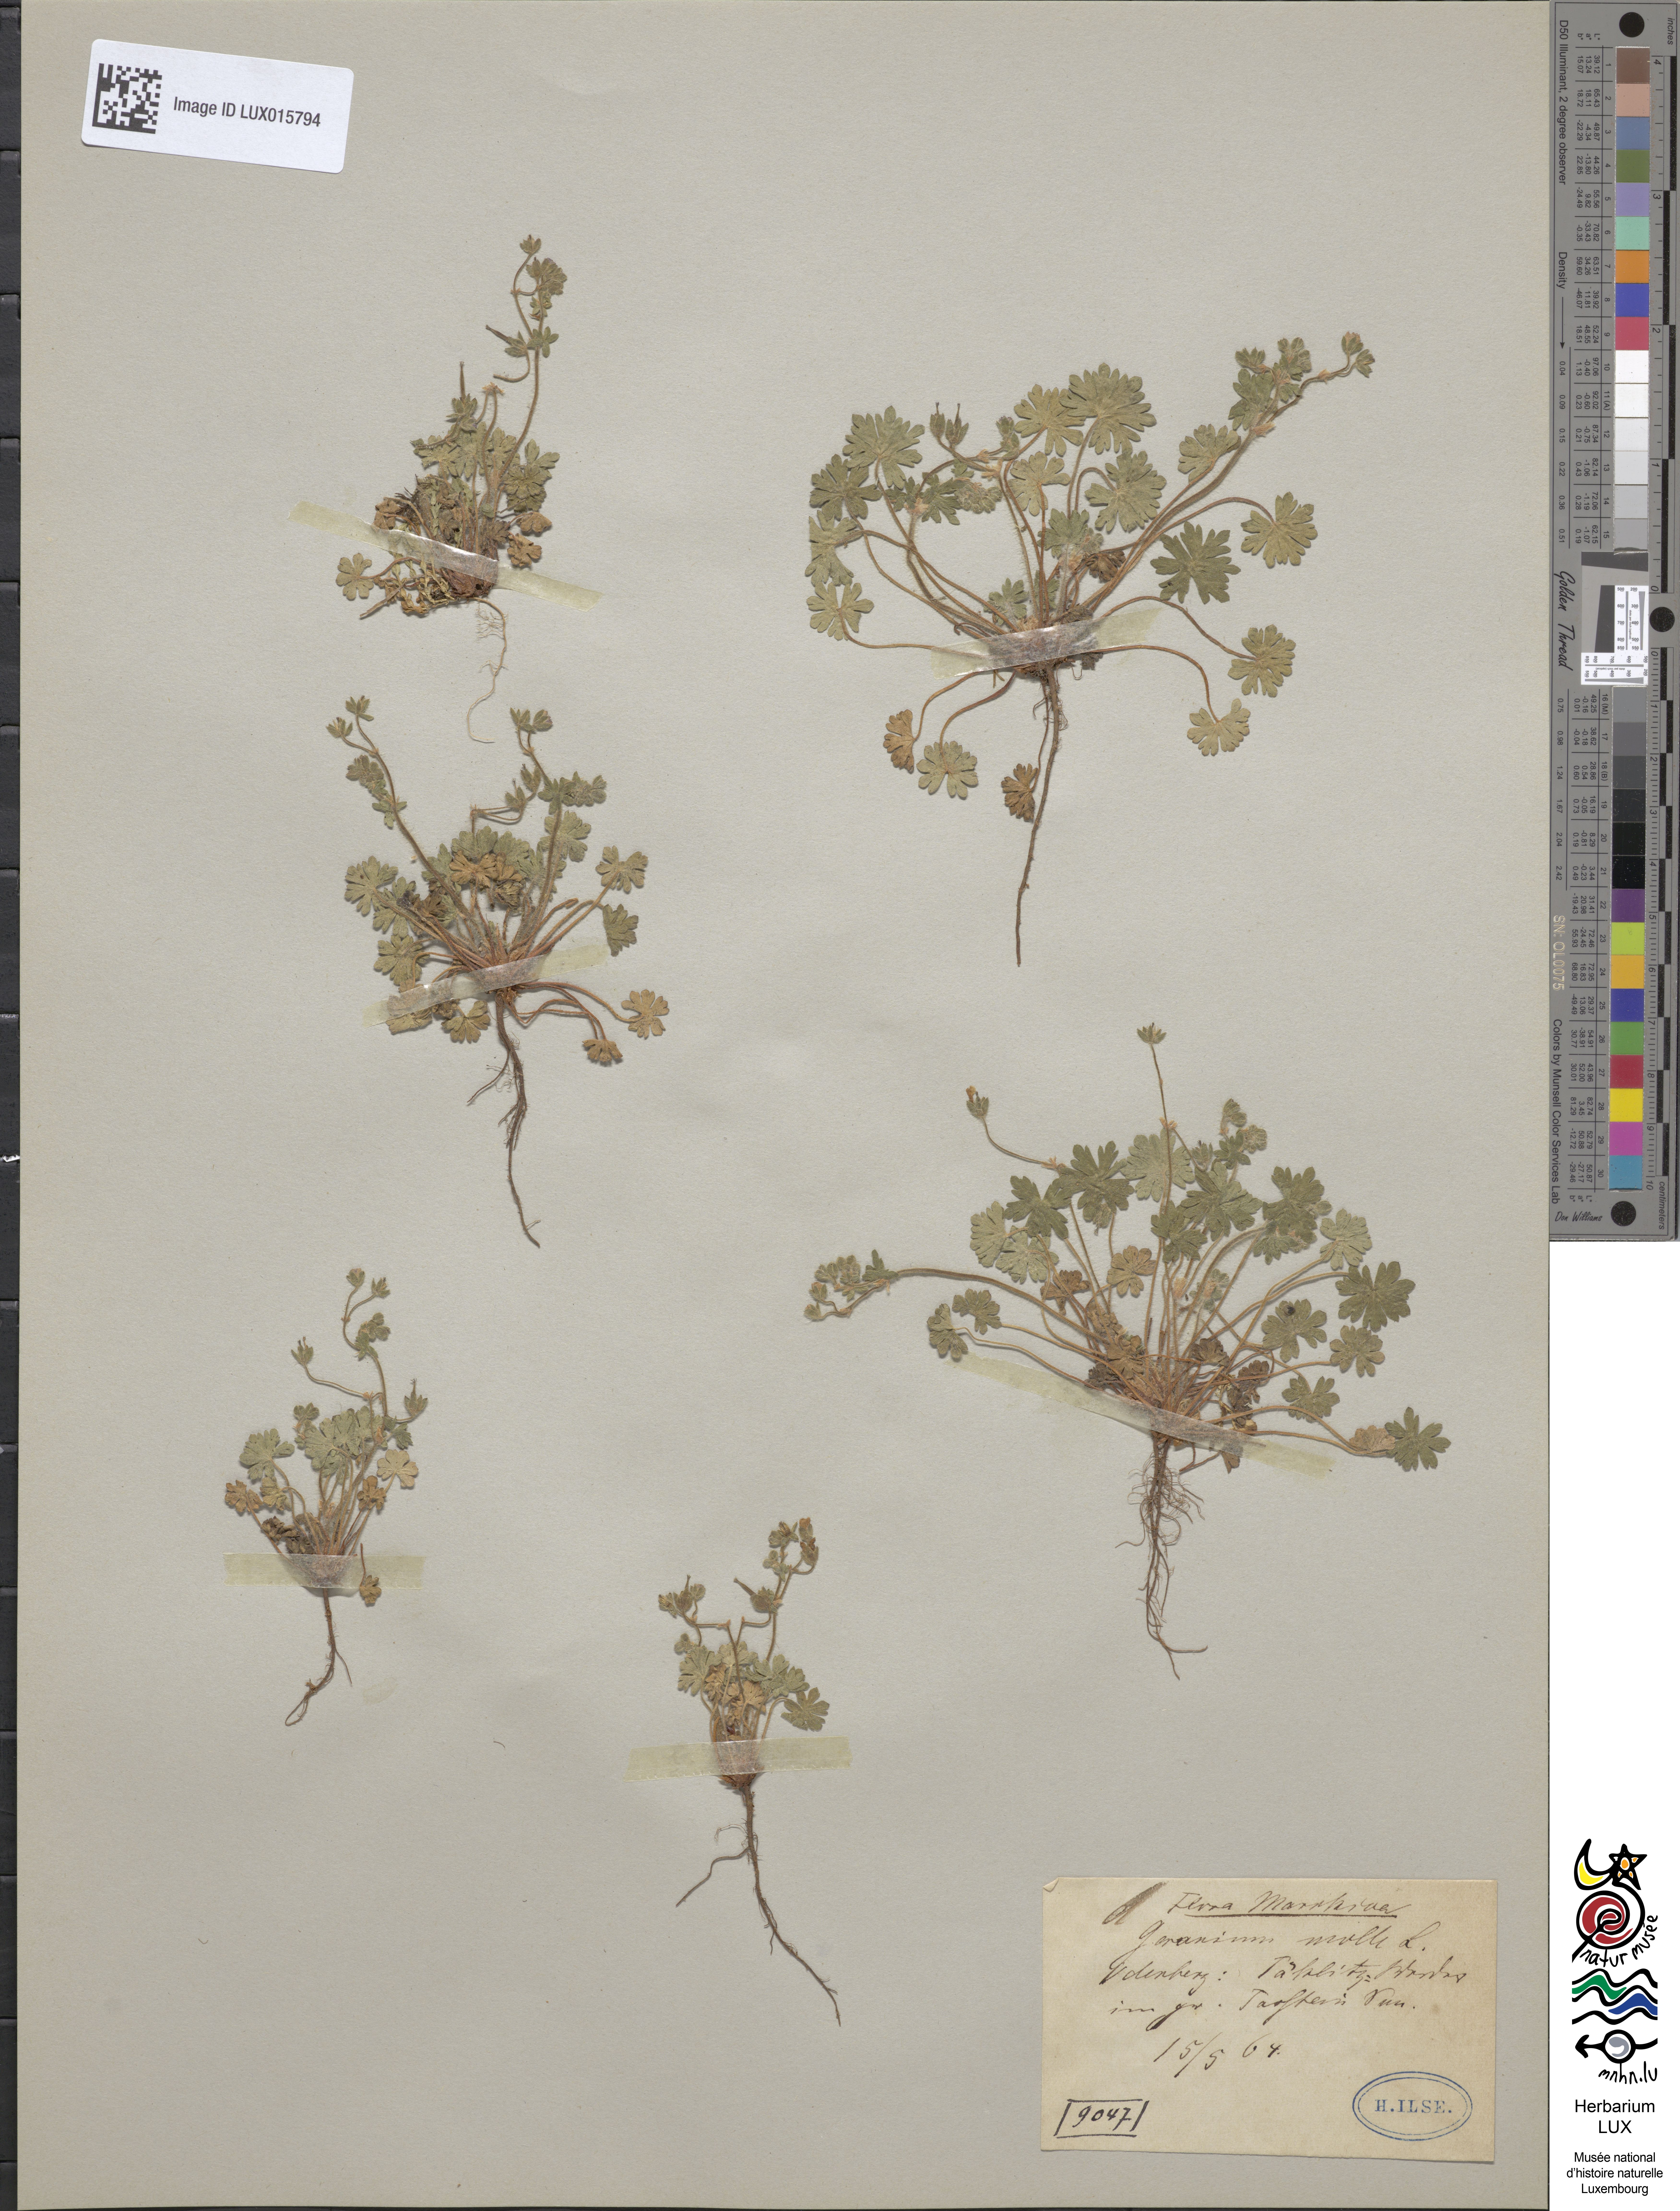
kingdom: Plantae
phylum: Tracheophyta
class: Magnoliopsida
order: Geraniales
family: Geraniaceae
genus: Geranium
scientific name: Geranium molle
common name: Dove's-foot crane's-bill
